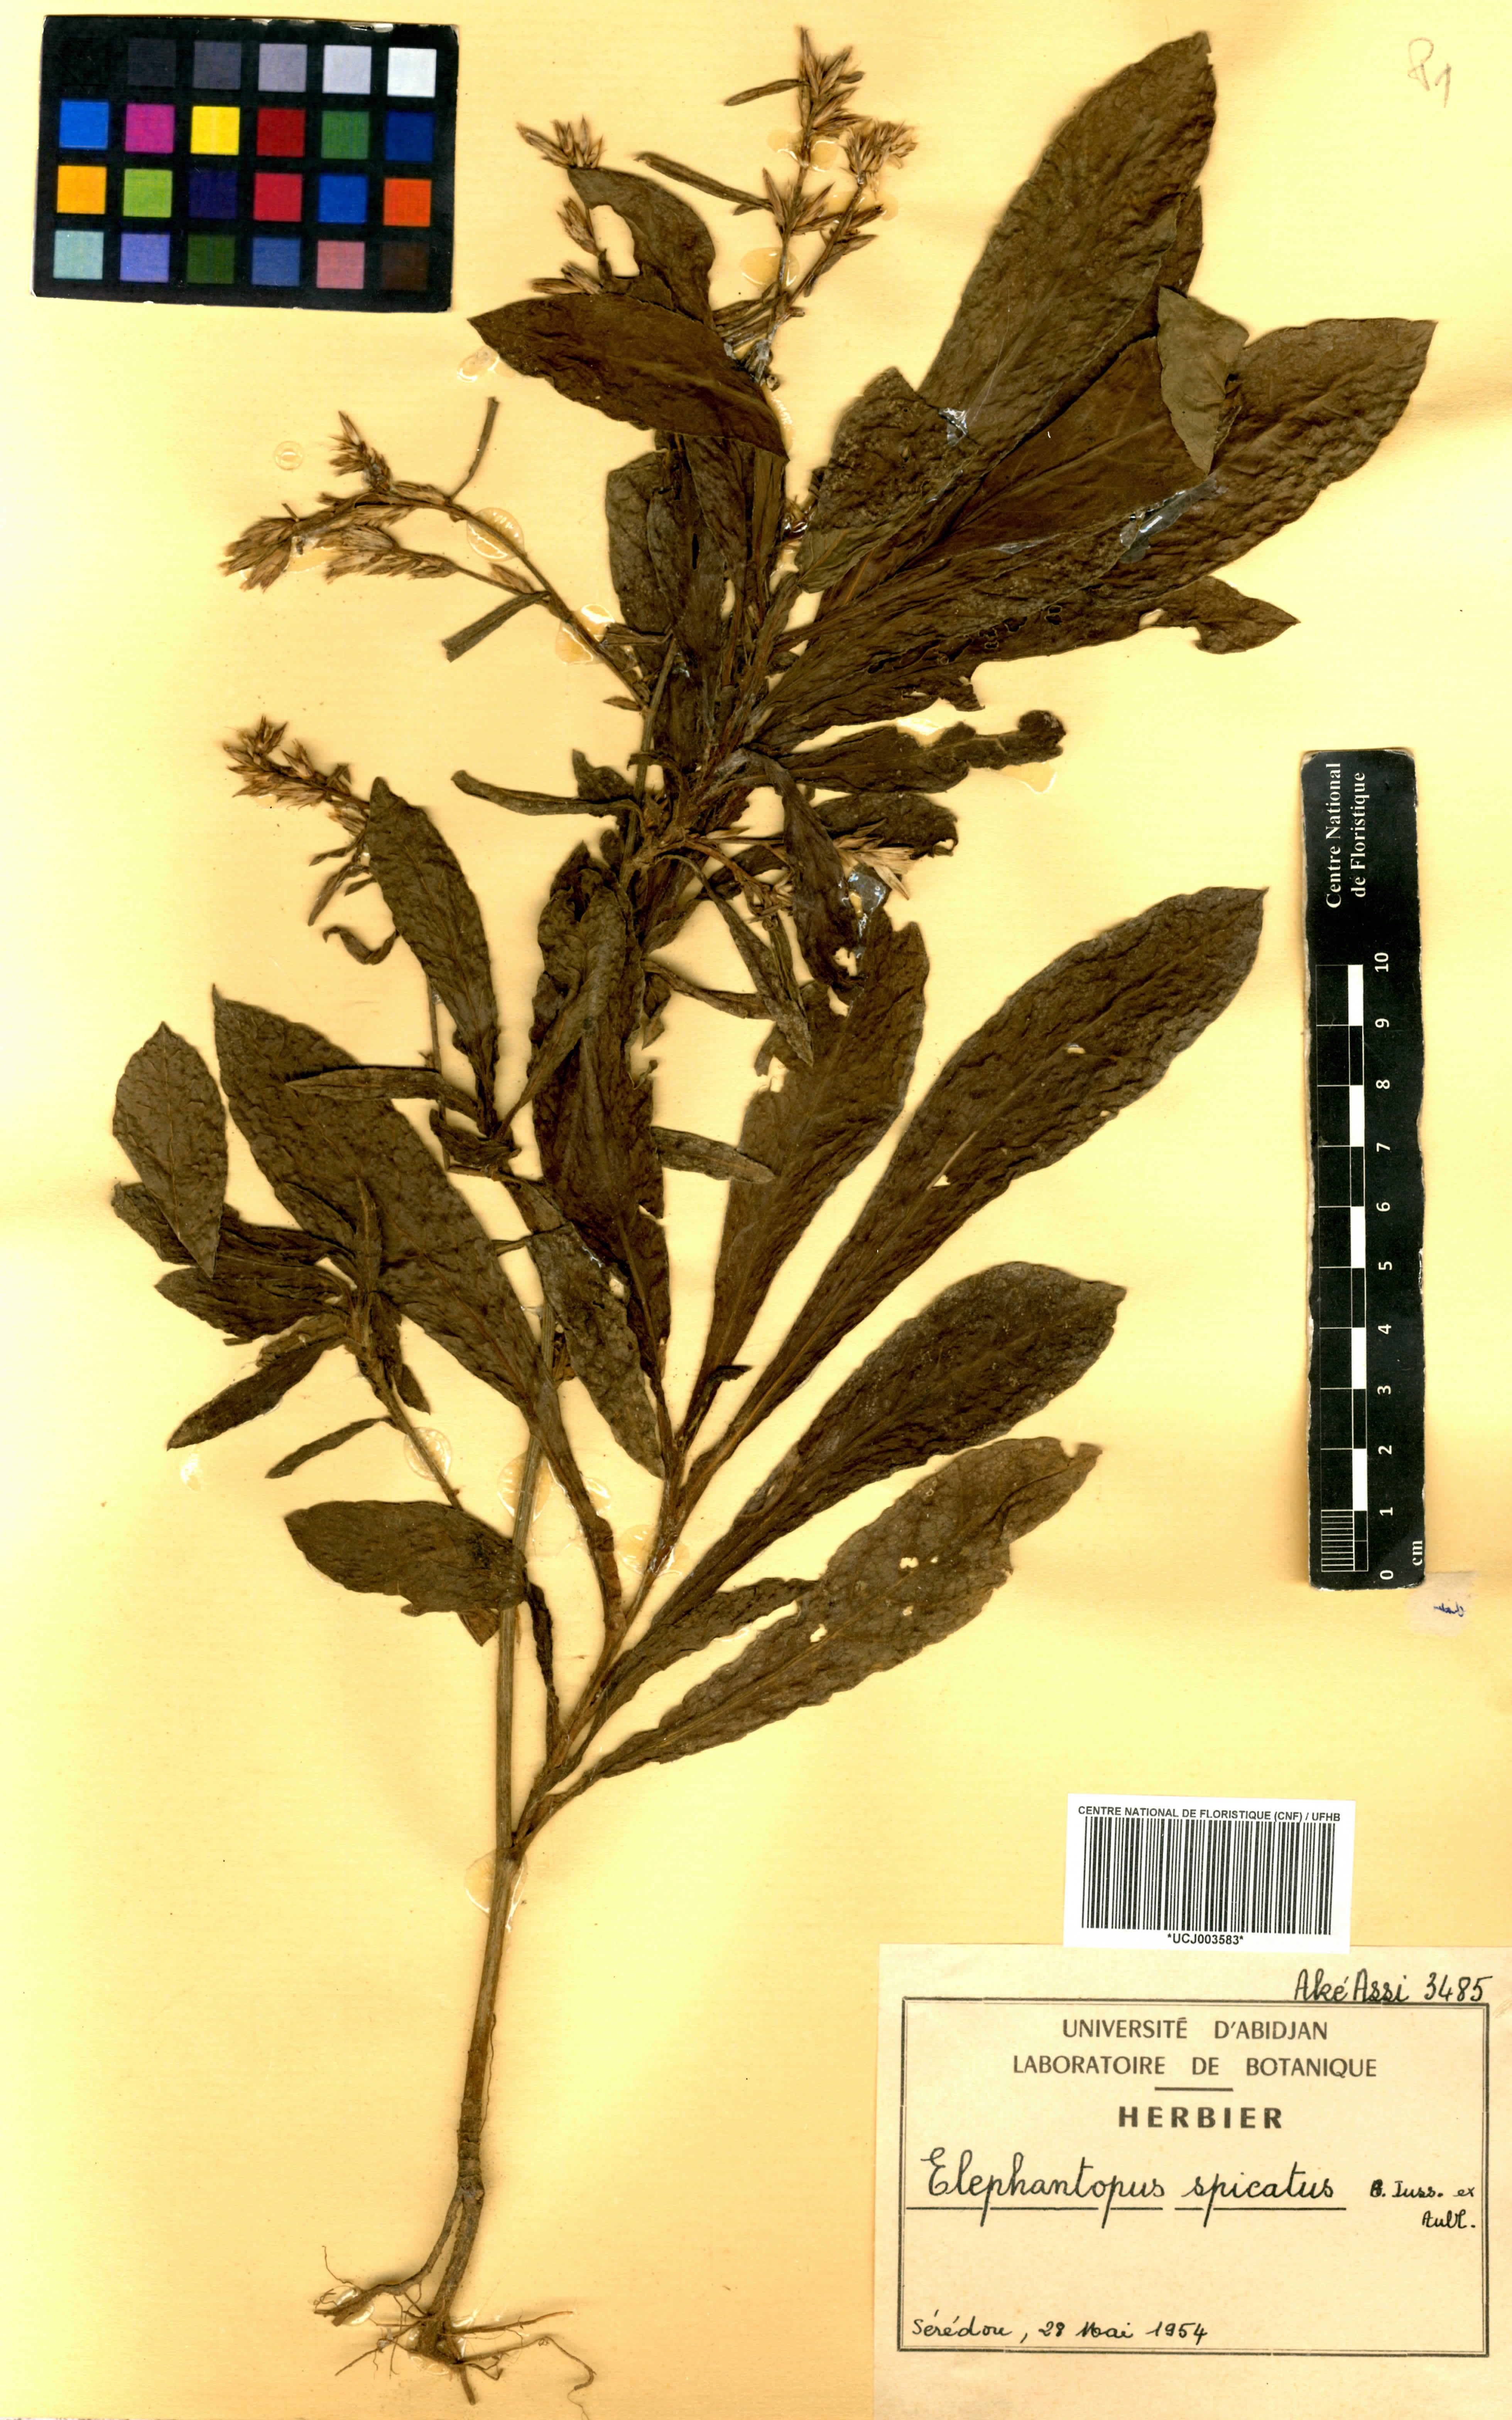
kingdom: Plantae
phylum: Tracheophyta
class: Magnoliopsida
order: Asterales
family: Asteraceae
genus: Pseudelephantopus
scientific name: Pseudelephantopus spicatus
